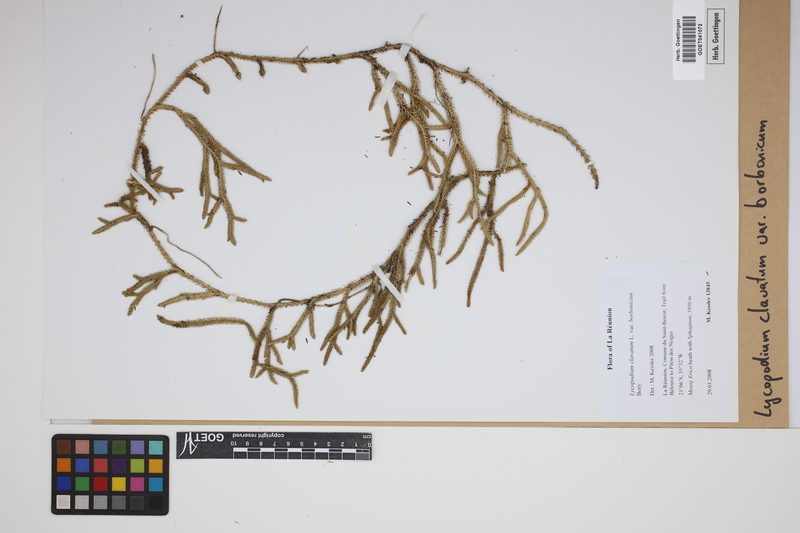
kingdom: Plantae
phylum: Tracheophyta
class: Lycopodiopsida
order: Lycopodiales
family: Lycopodiaceae
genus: Lycopodium
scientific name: Lycopodium clavatum
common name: Stag's-horn clubmoss
